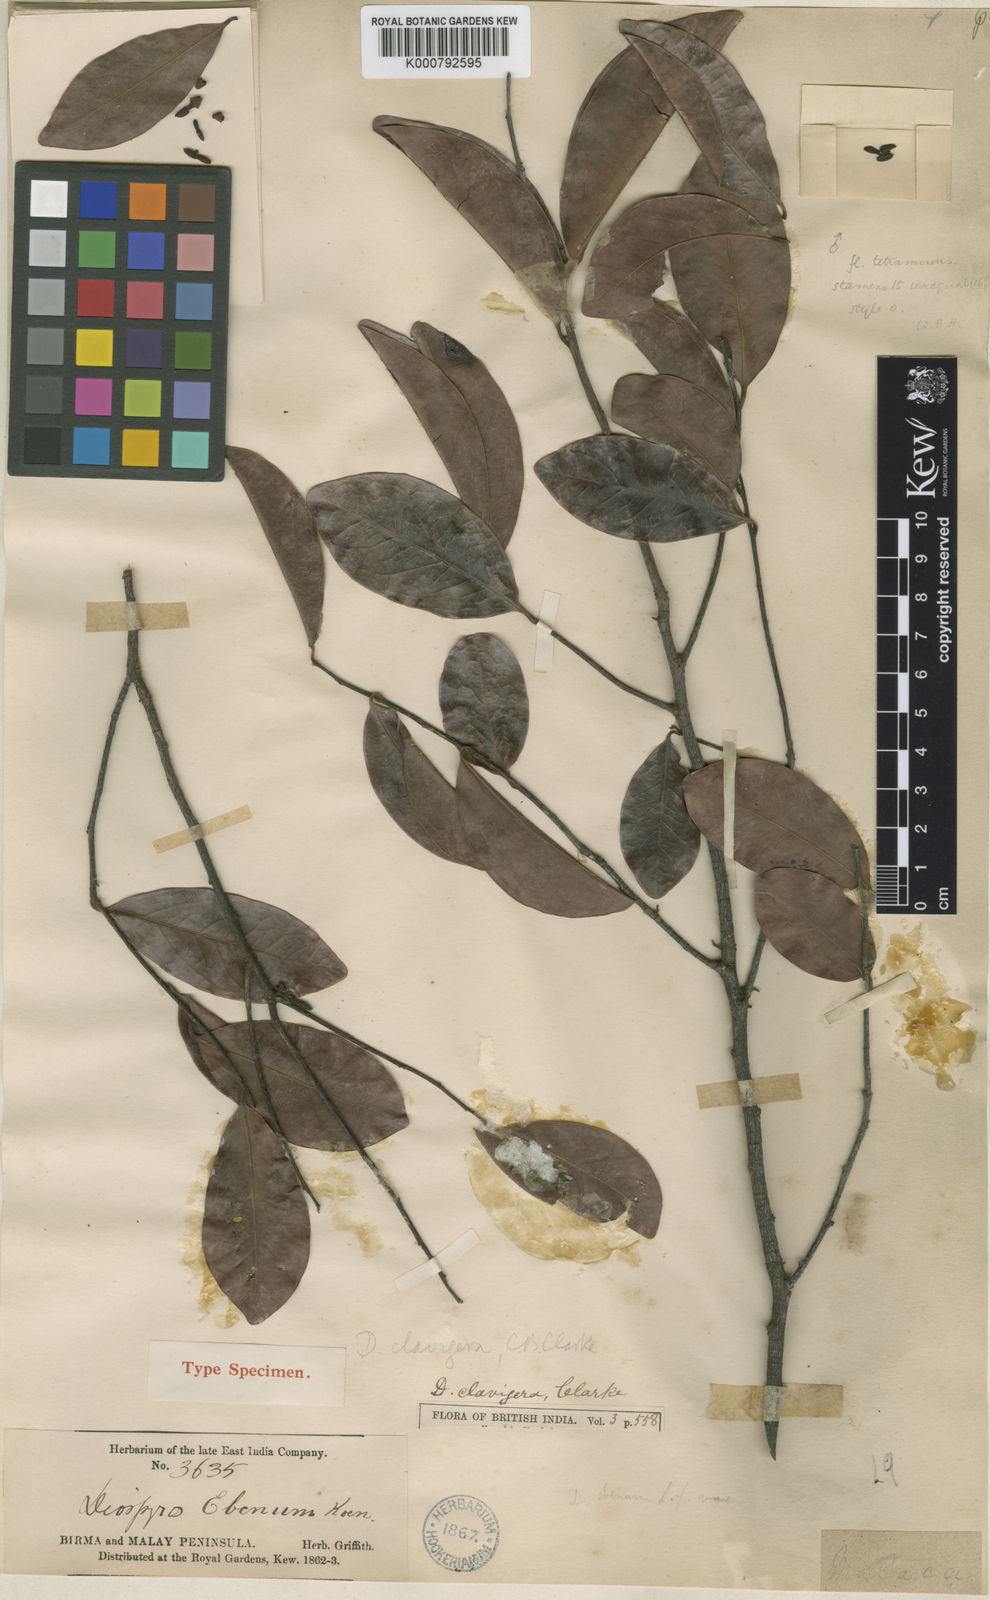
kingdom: Plantae
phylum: Tracheophyta
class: Magnoliopsida
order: Ericales
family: Ebenaceae
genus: Diospyros
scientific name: Diospyros sumatrana
